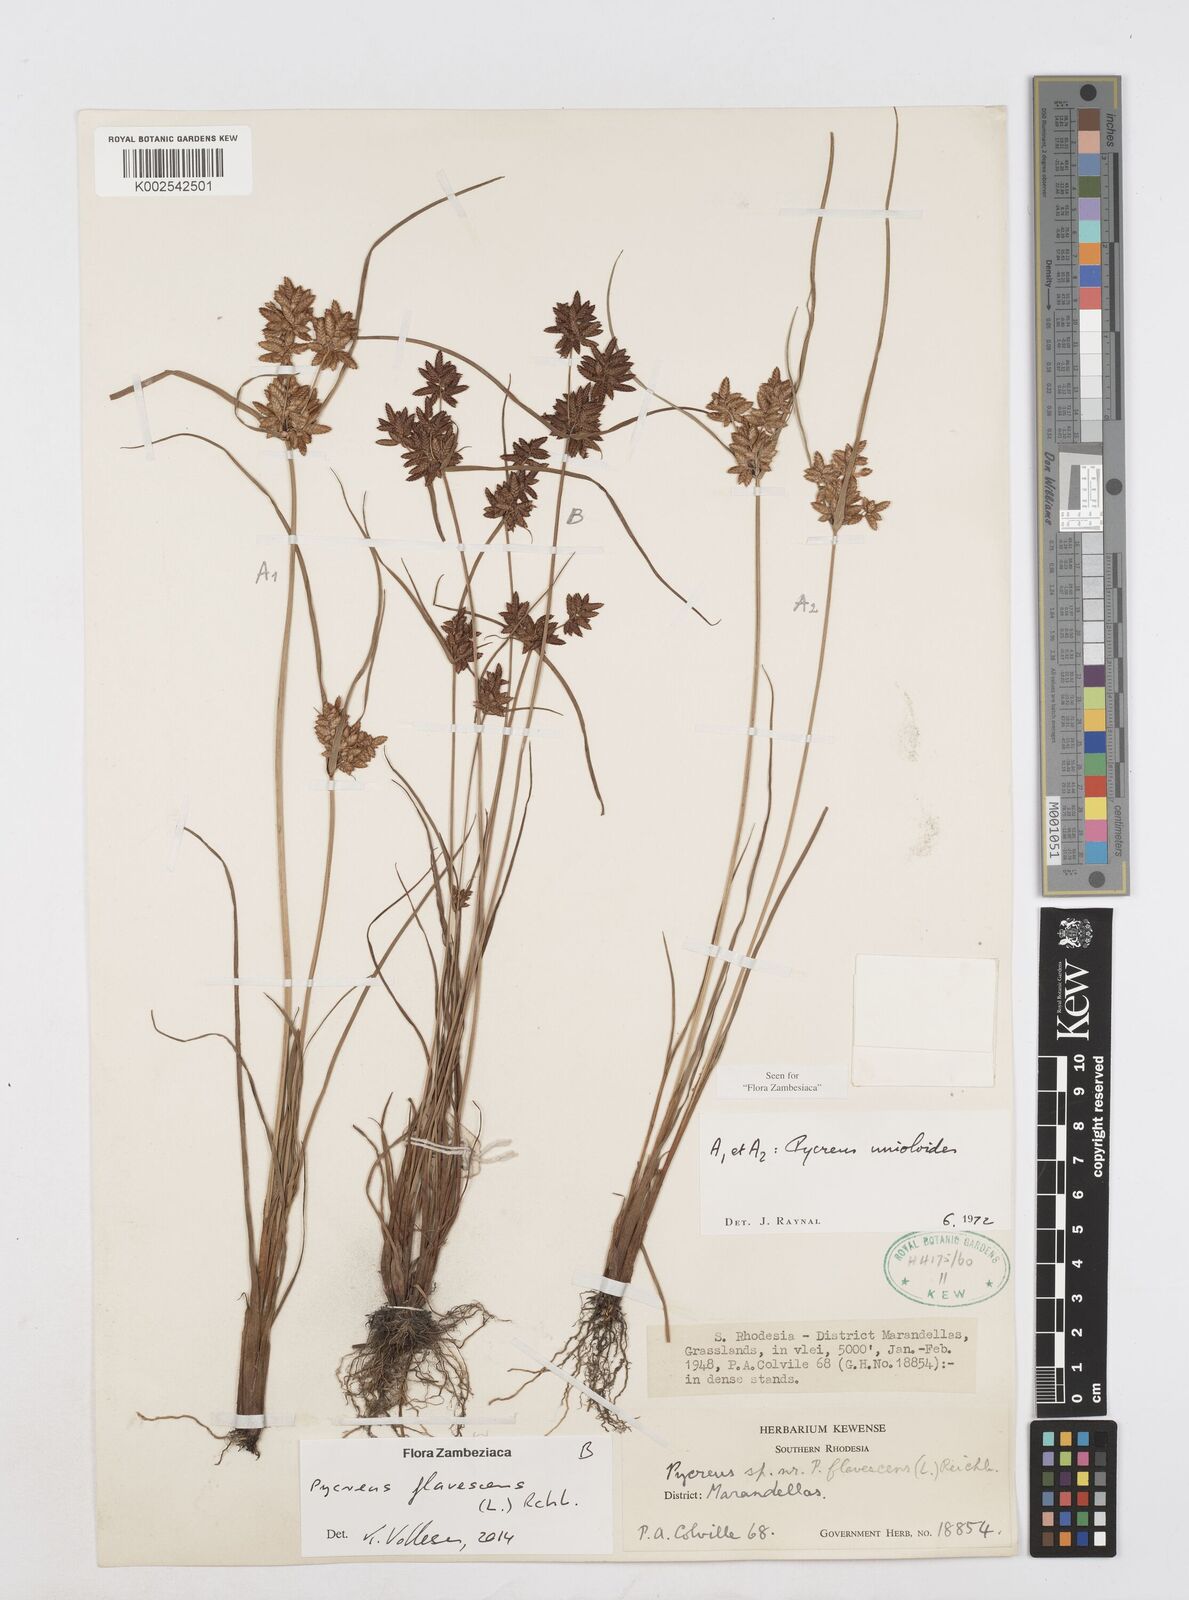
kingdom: Plantae
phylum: Tracheophyta
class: Liliopsida
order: Poales
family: Cyperaceae
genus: Cyperus
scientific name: Cyperus unioloides
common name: Uniola flatsedge
